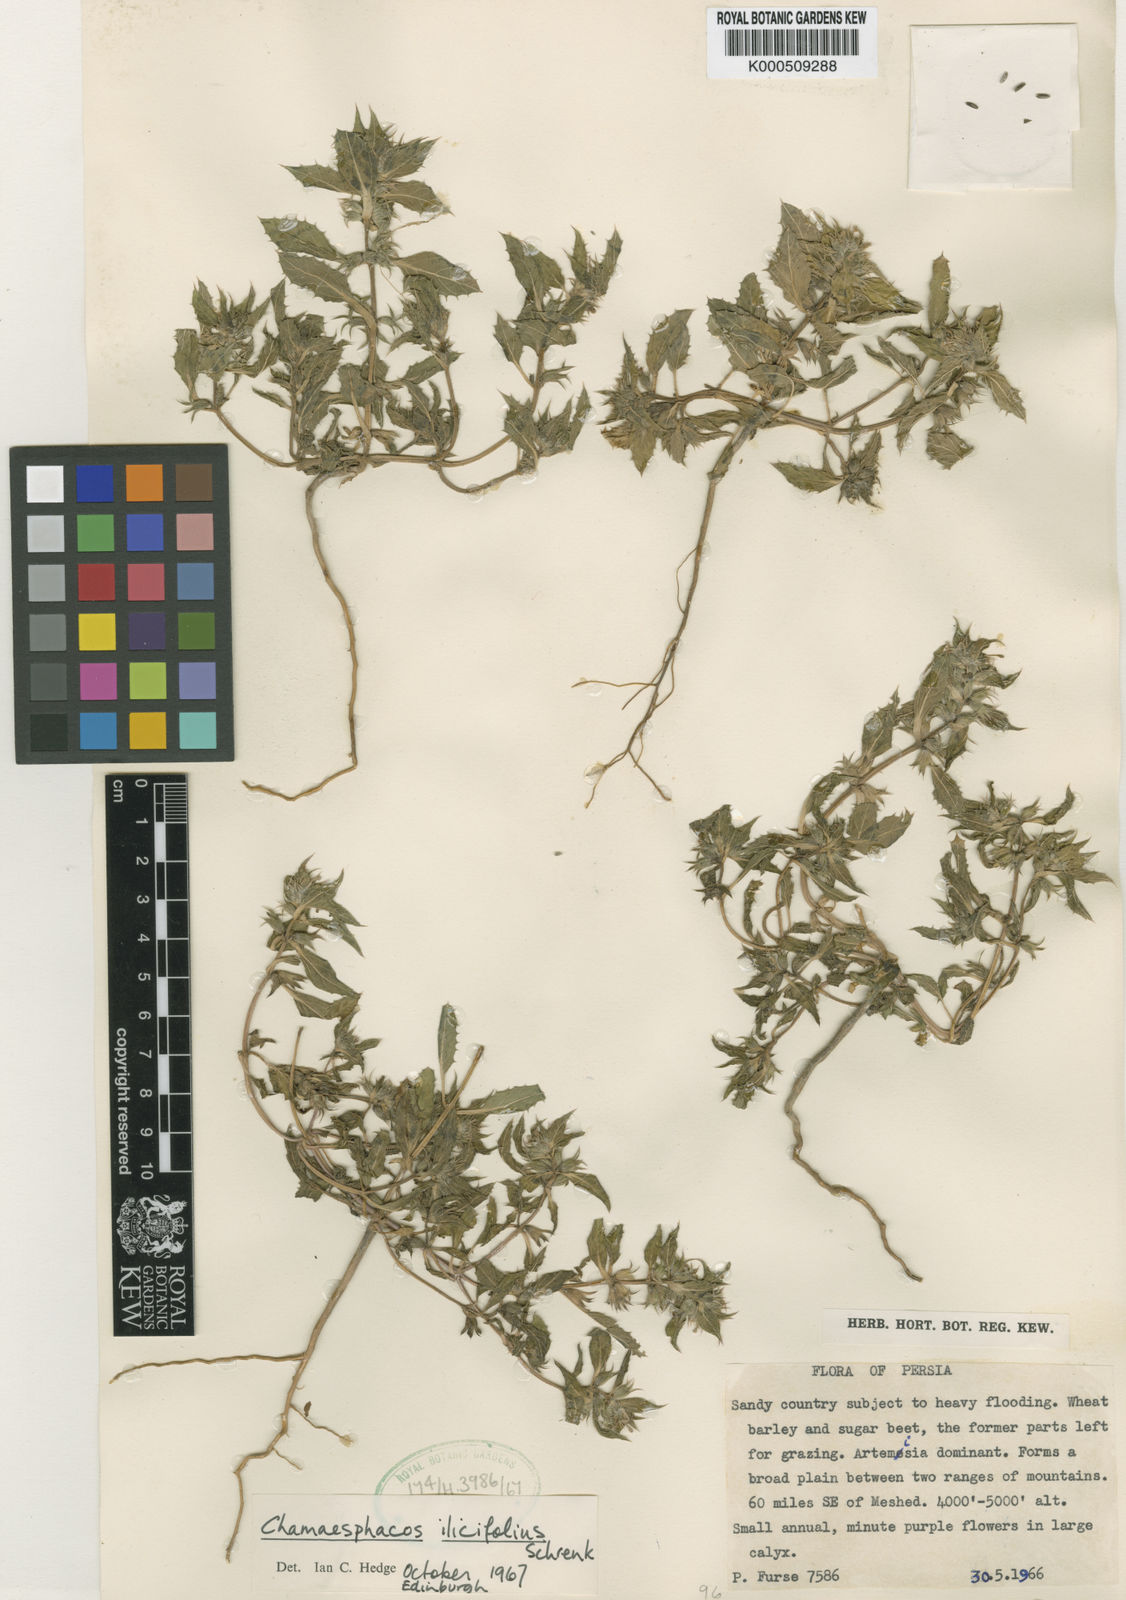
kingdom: Plantae
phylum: Tracheophyta
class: Magnoliopsida
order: Lamiales
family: Lamiaceae
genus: Chamaesphacos
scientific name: Chamaesphacos ilicifolius
